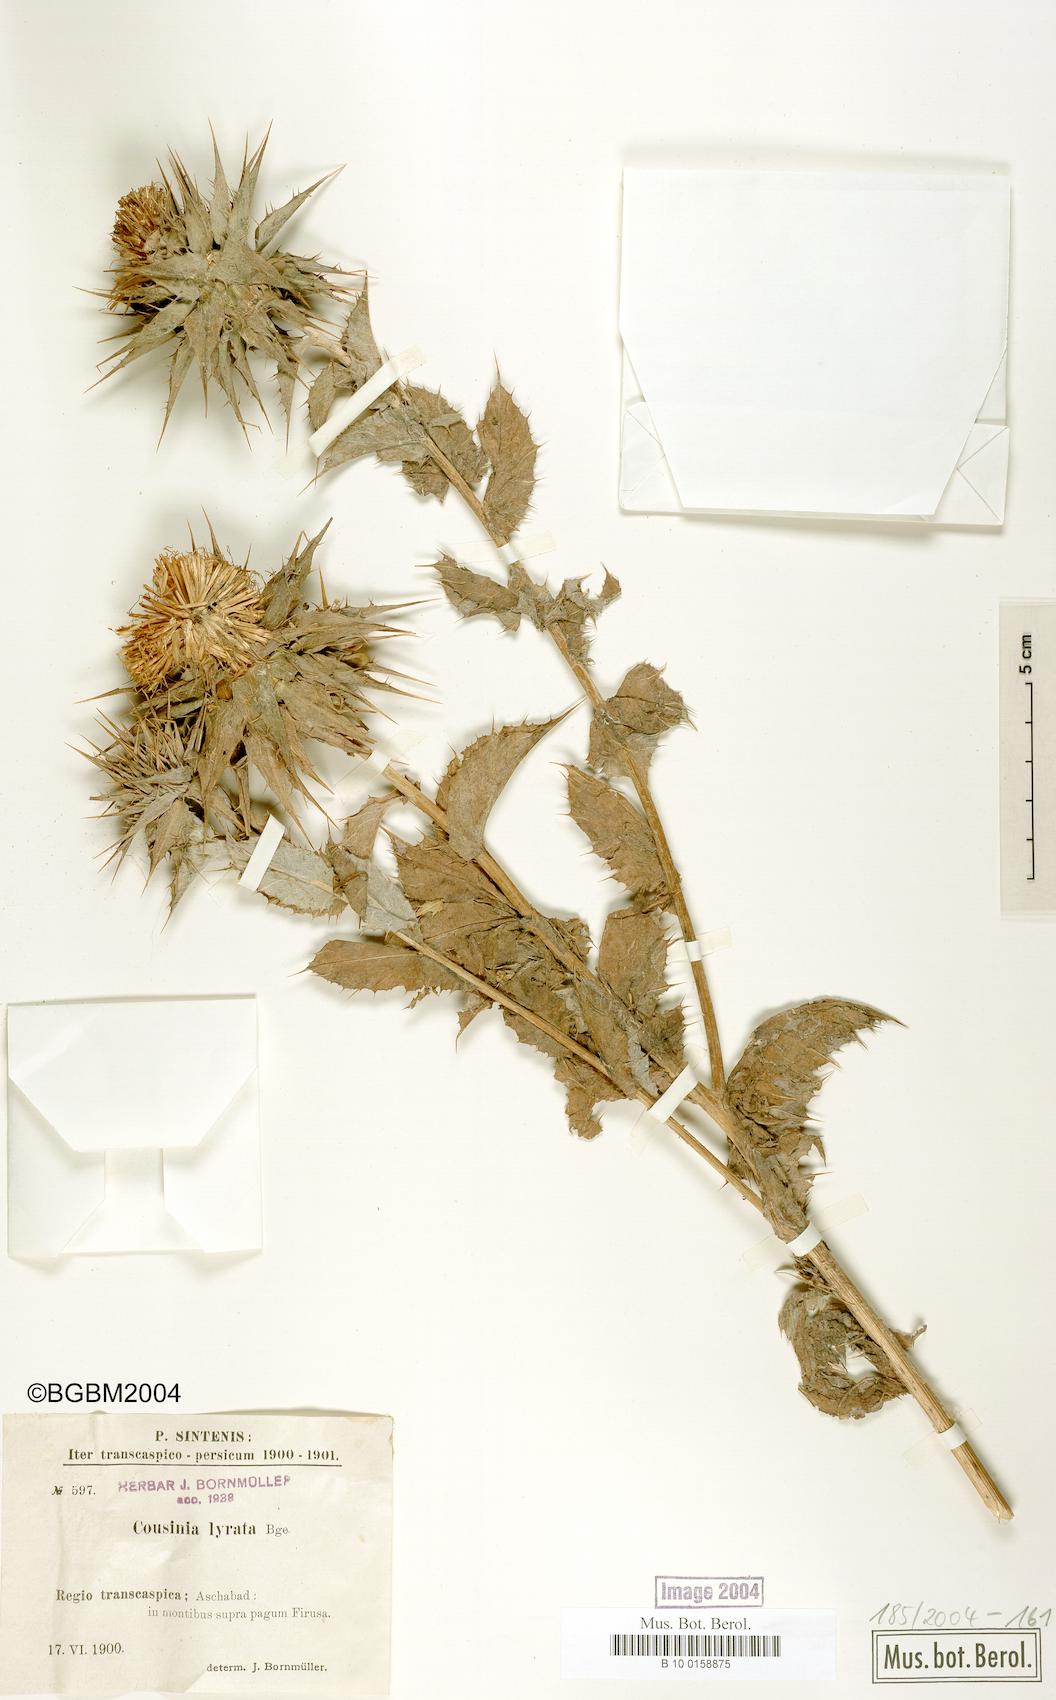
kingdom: Plantae
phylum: Tracheophyta
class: Magnoliopsida
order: Asterales
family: Asteraceae
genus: Cousinia
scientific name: Cousinia lyrata
